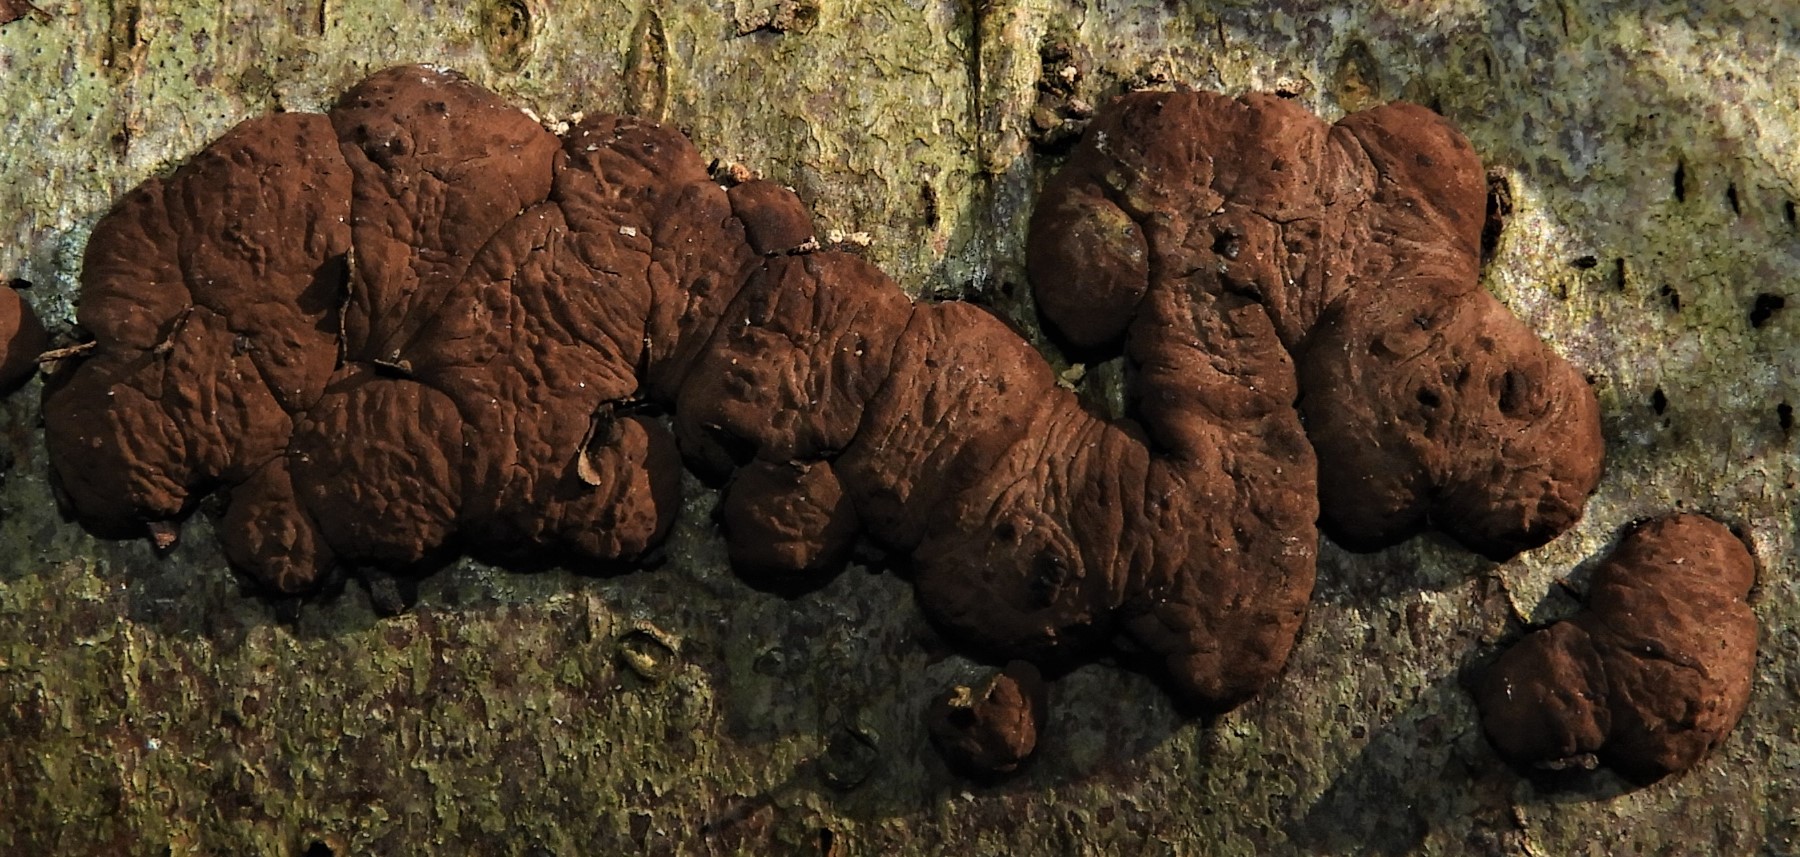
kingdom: Fungi
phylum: Ascomycota
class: Sordariomycetes
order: Xylariales
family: Hypoxylaceae
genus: Jackrogersella
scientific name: Jackrogersella multiformis
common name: foranderlig kulbær
